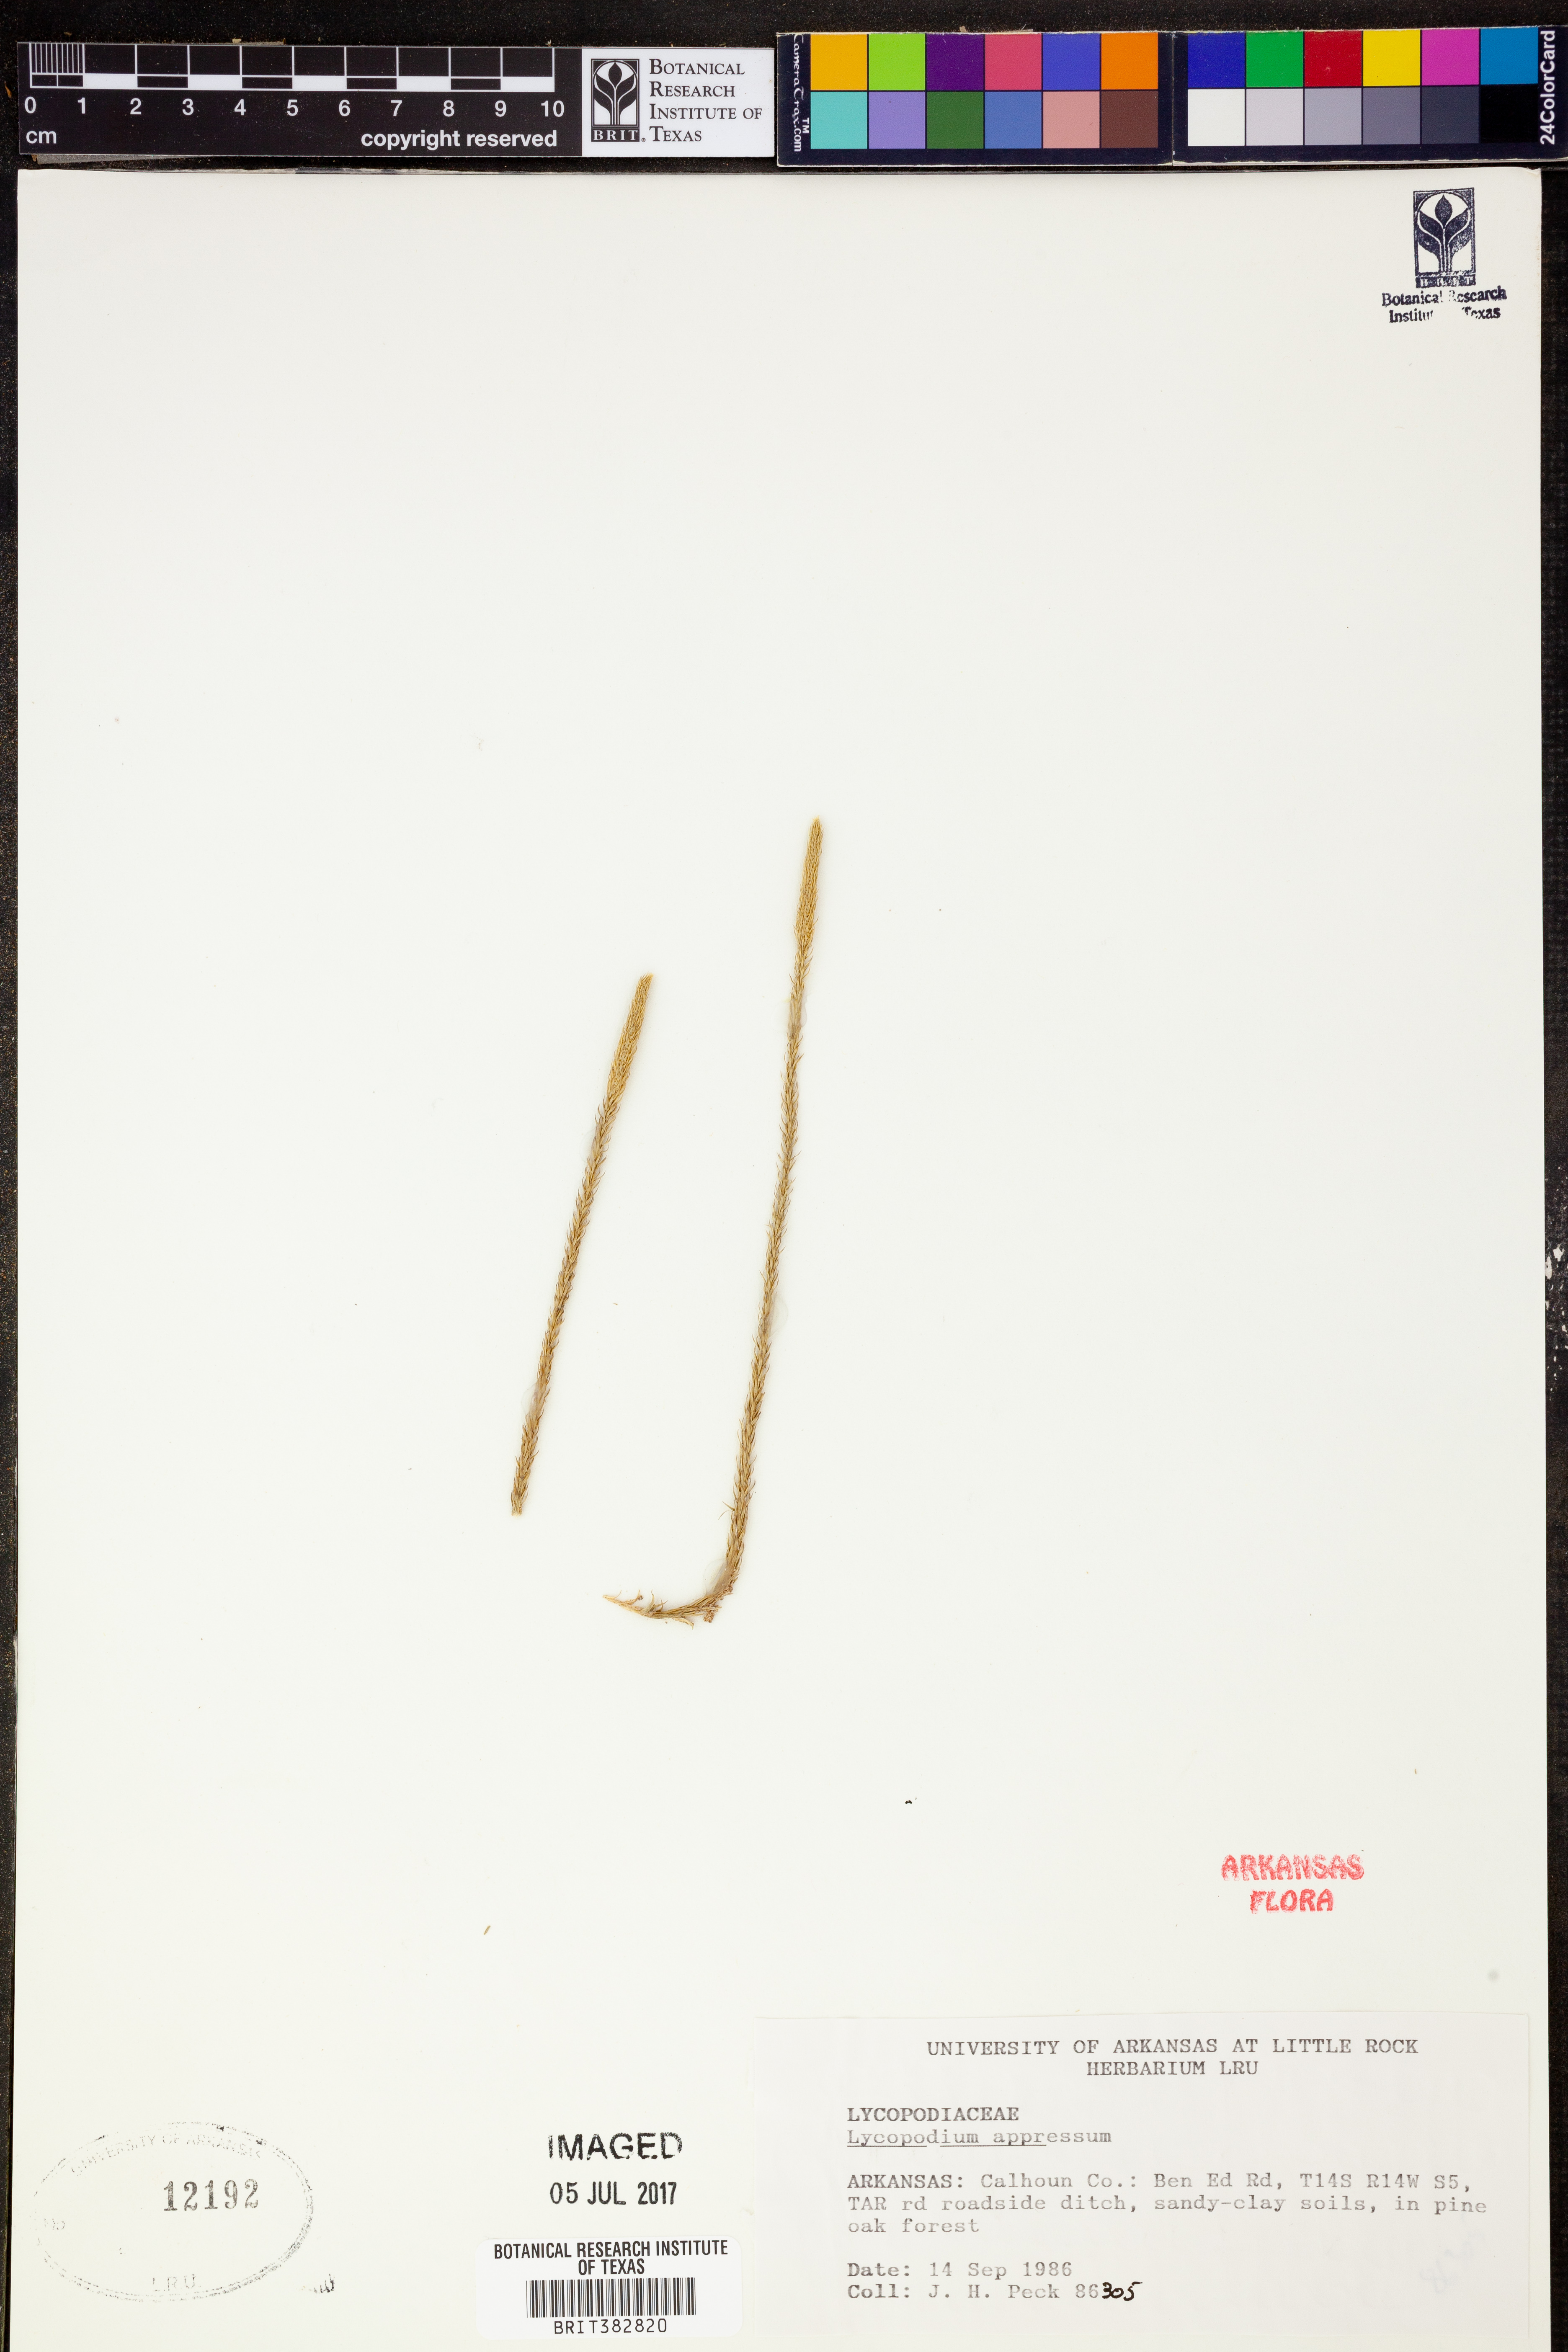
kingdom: Plantae
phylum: Tracheophyta
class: Lycopodiopsida
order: Lycopodiales
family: Lycopodiaceae
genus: Lycopodiella
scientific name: Lycopodiella appressa
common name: Appressed bog clubmoss
